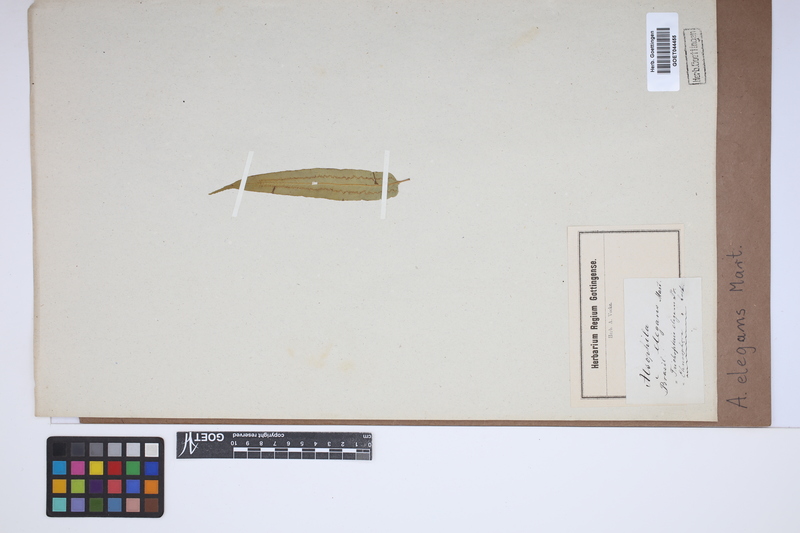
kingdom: Plantae
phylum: Tracheophyta
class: Polypodiopsida
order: Cyatheales
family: Cyatheaceae
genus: Cyathea
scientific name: Cyathea corcovadensis
